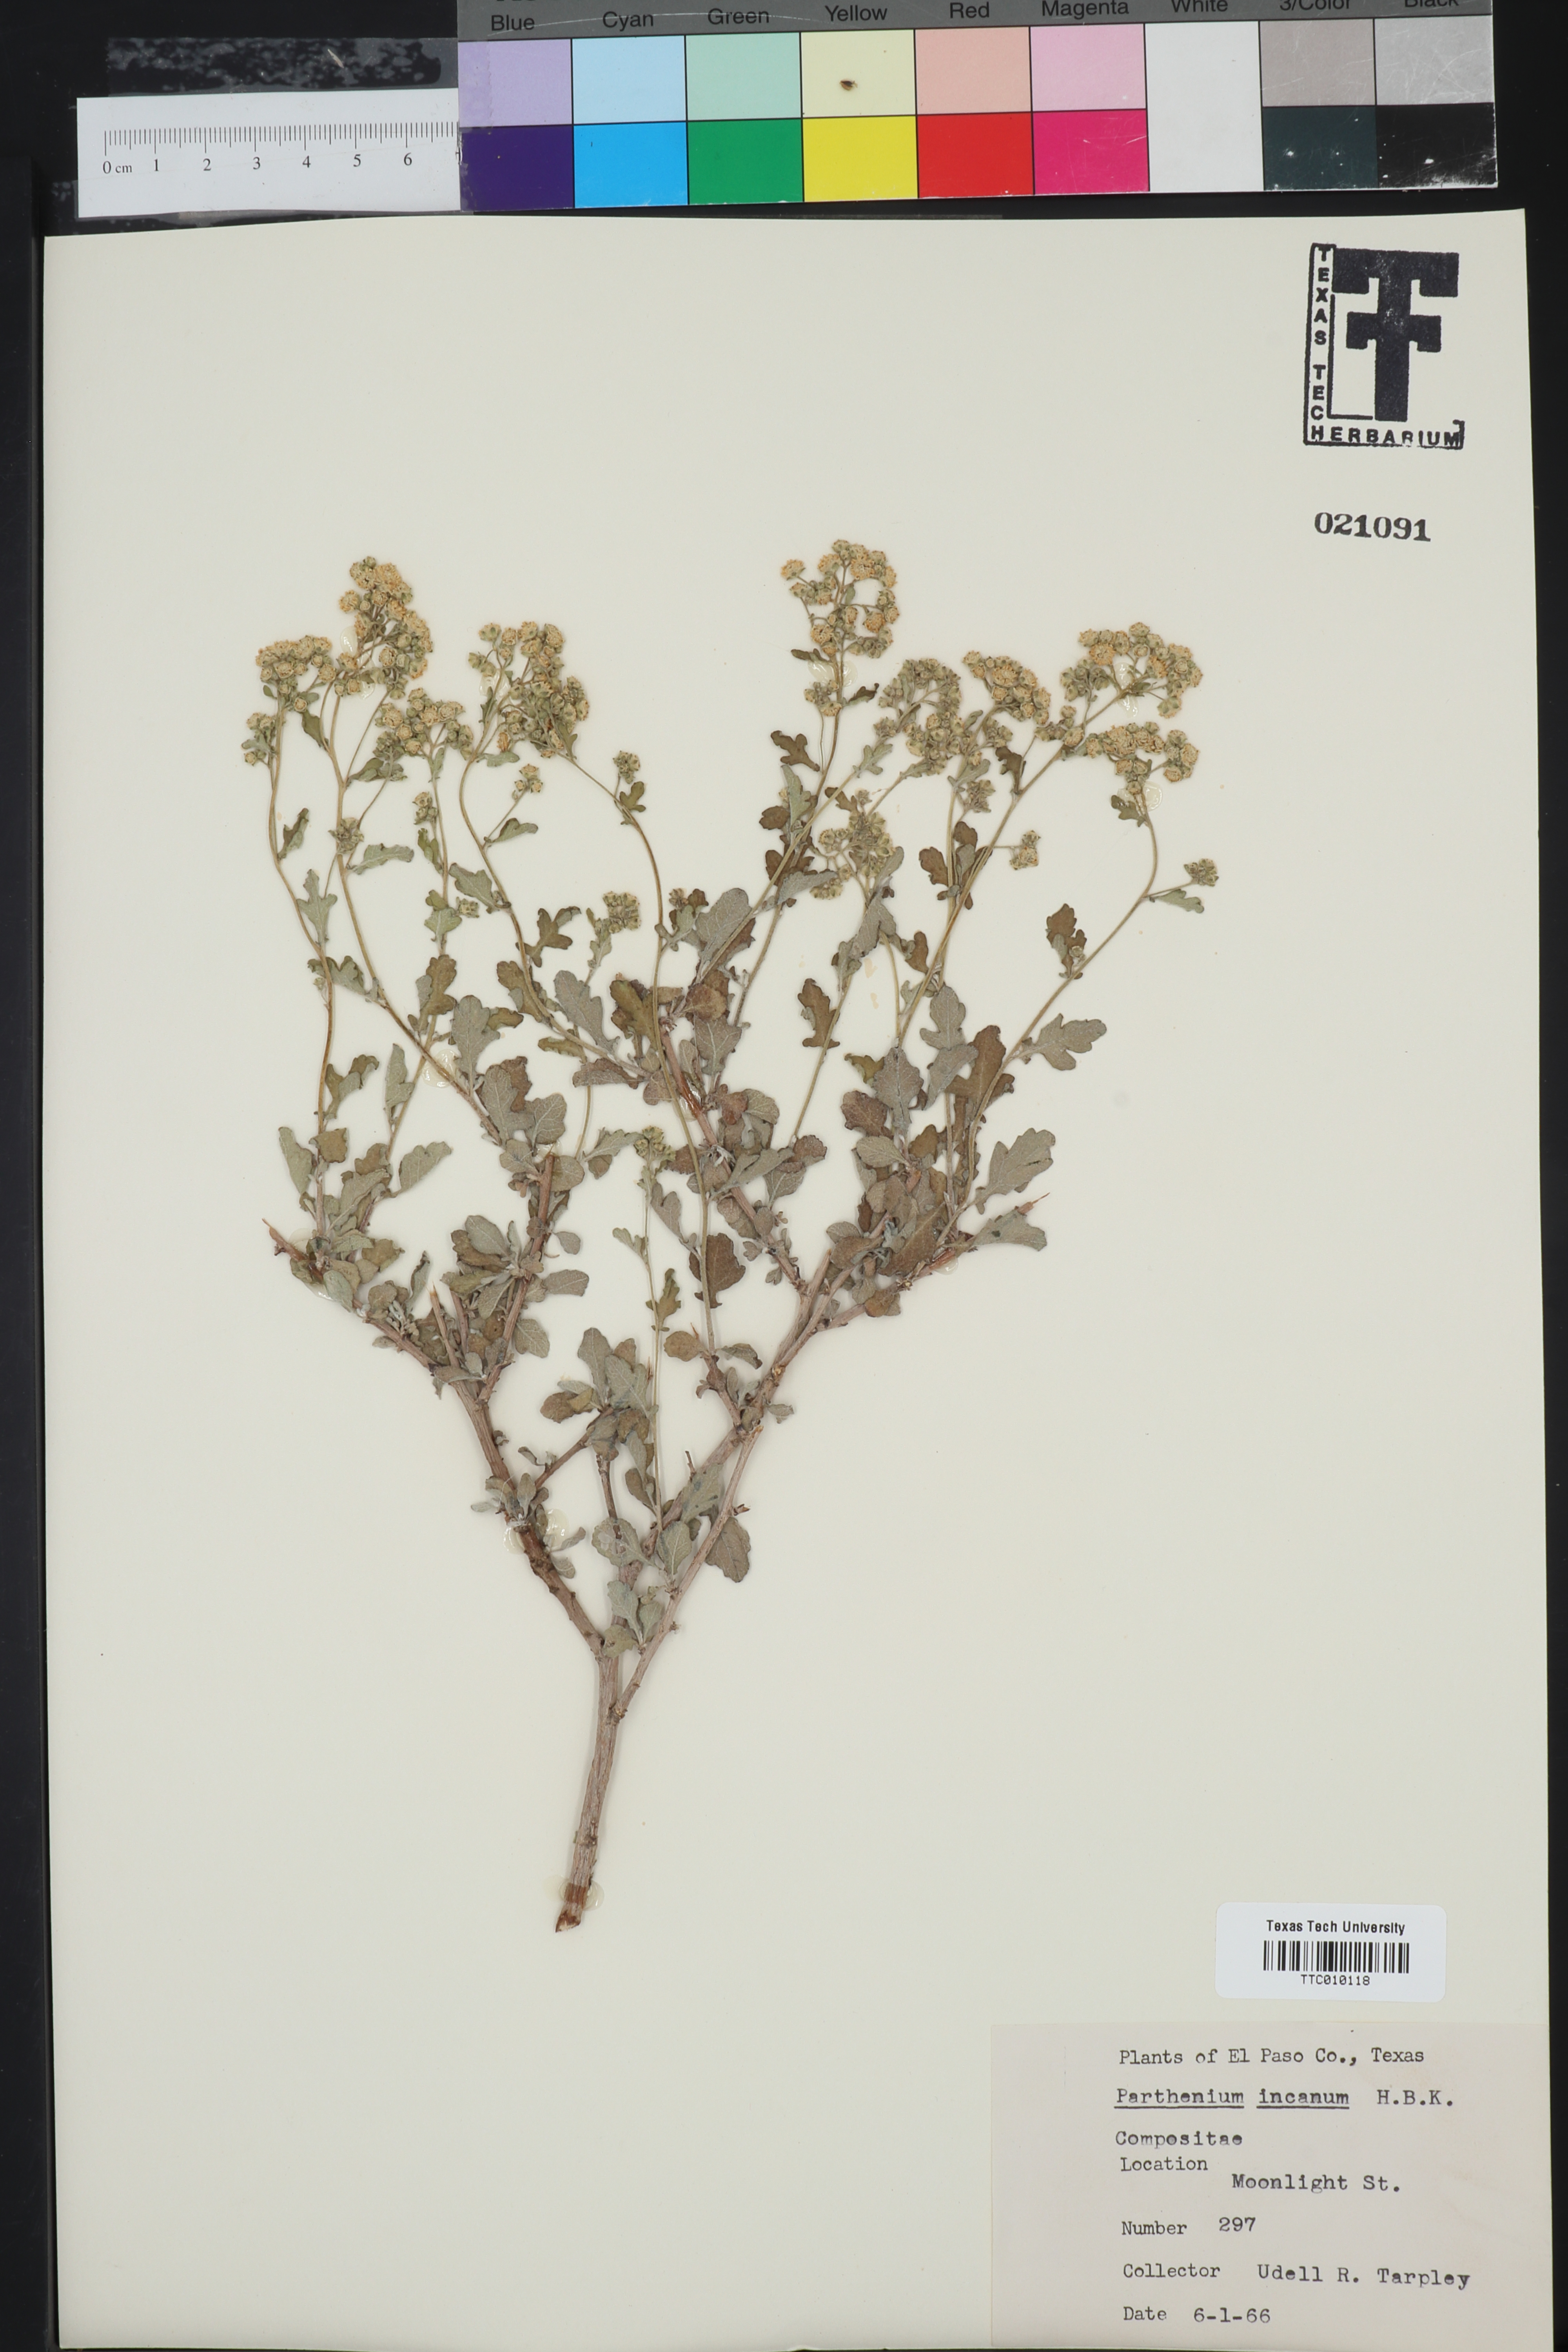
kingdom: Plantae
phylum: Tracheophyta
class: Magnoliopsida
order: Asterales
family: Asteraceae
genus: Parthenium
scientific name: Parthenium incanum
